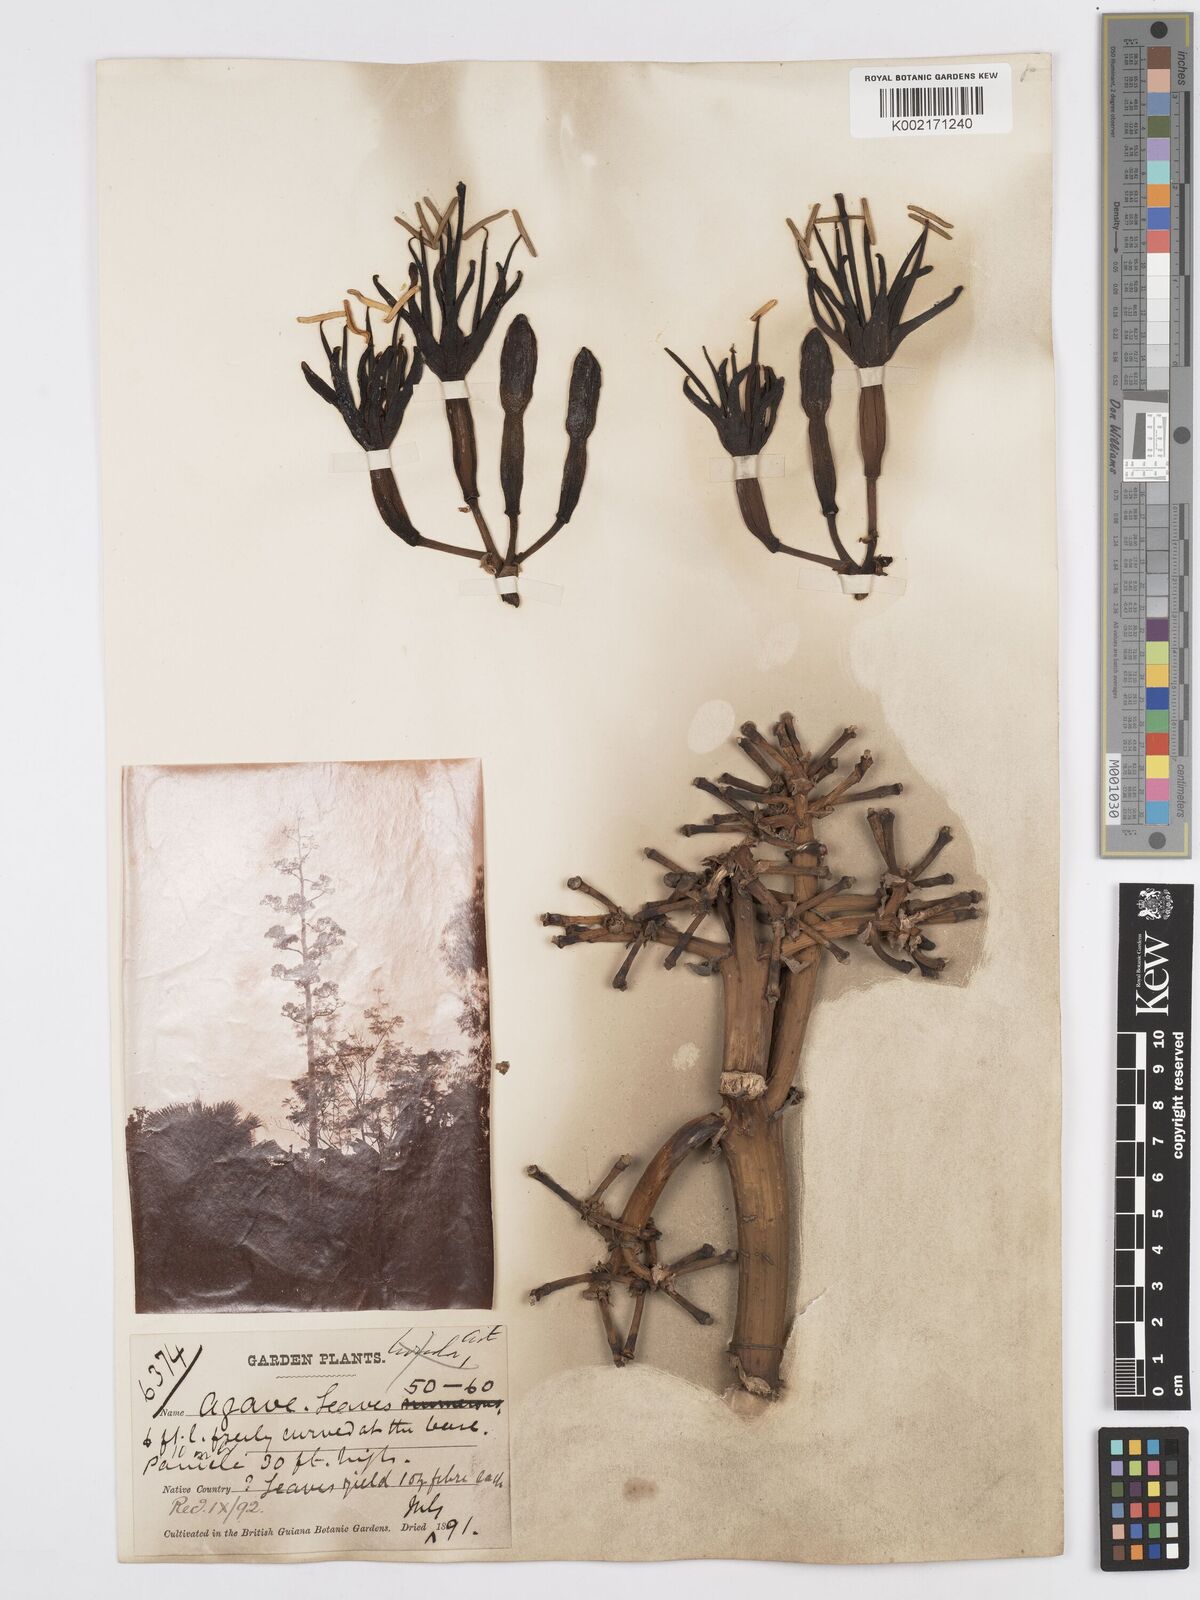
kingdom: Plantae
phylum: Tracheophyta
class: Liliopsida
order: Asparagales
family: Asparagaceae
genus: Agave
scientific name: Agave bahamana
